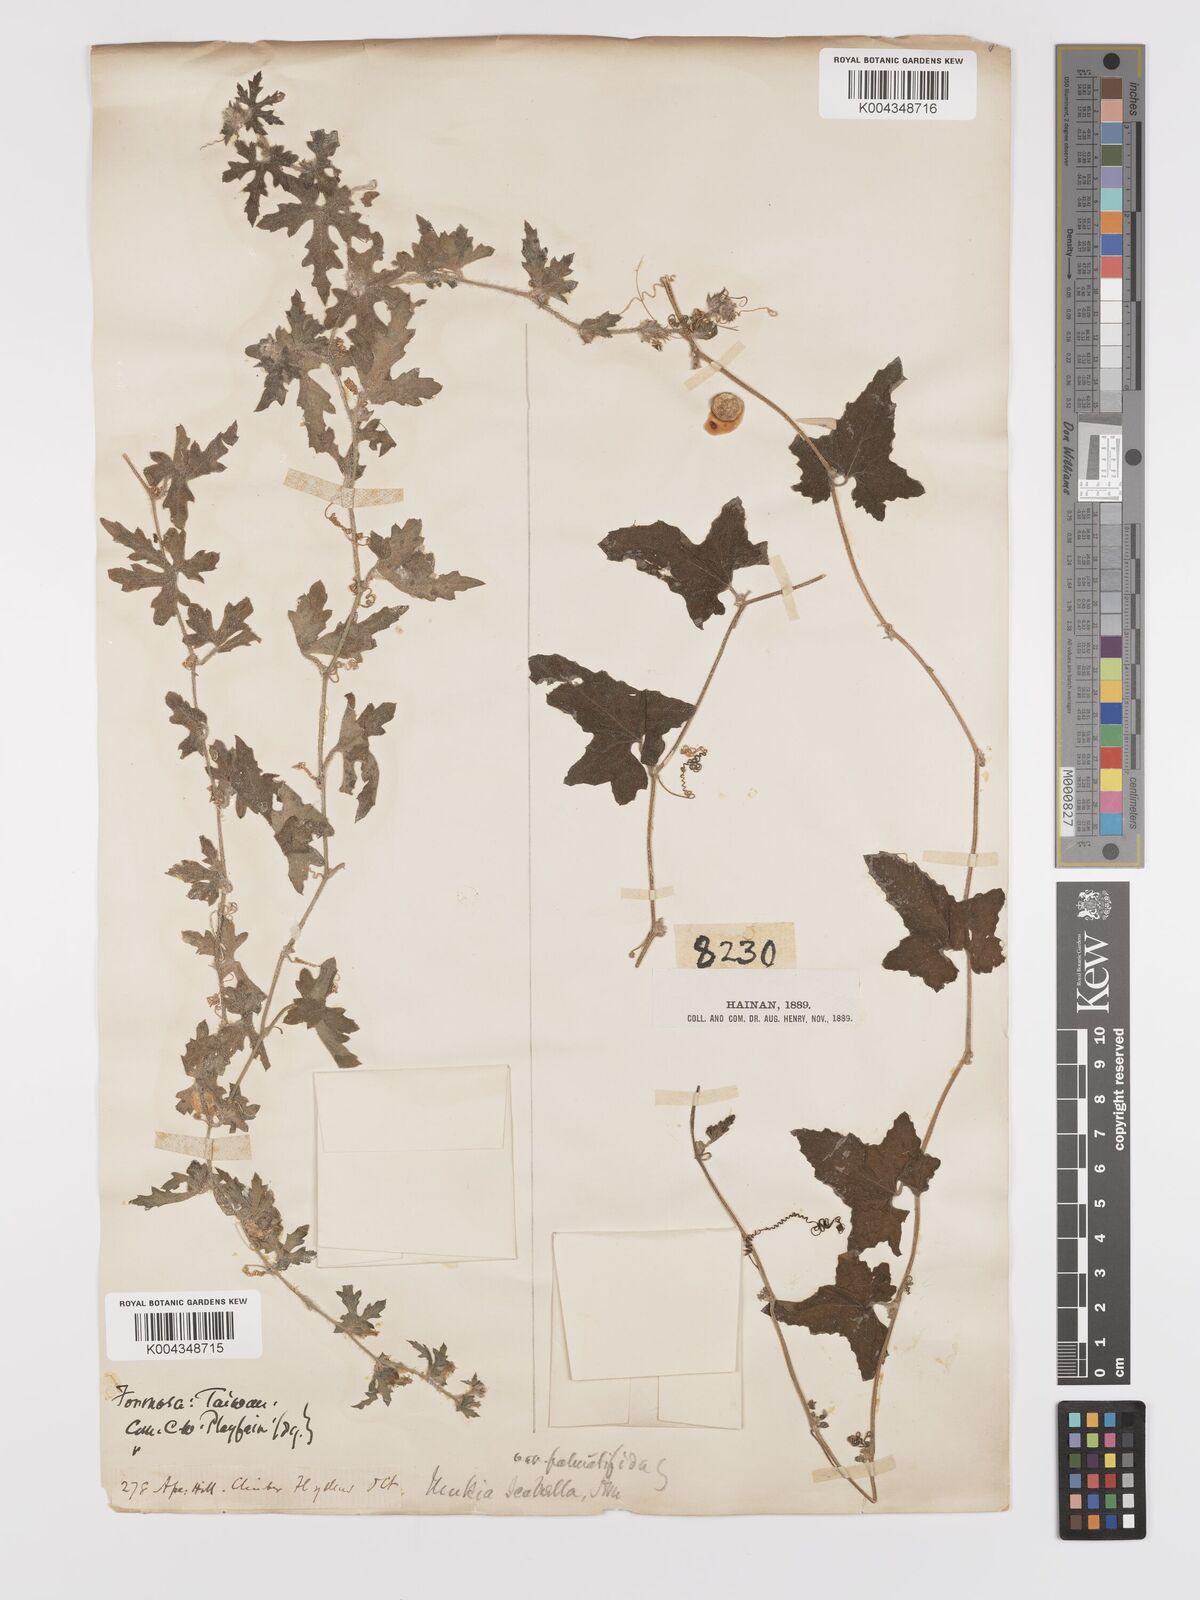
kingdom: Plantae
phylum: Tracheophyta
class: Magnoliopsida
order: Cucurbitales
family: Cucurbitaceae
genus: Cucumis
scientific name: Cucumis maderaspatanus
